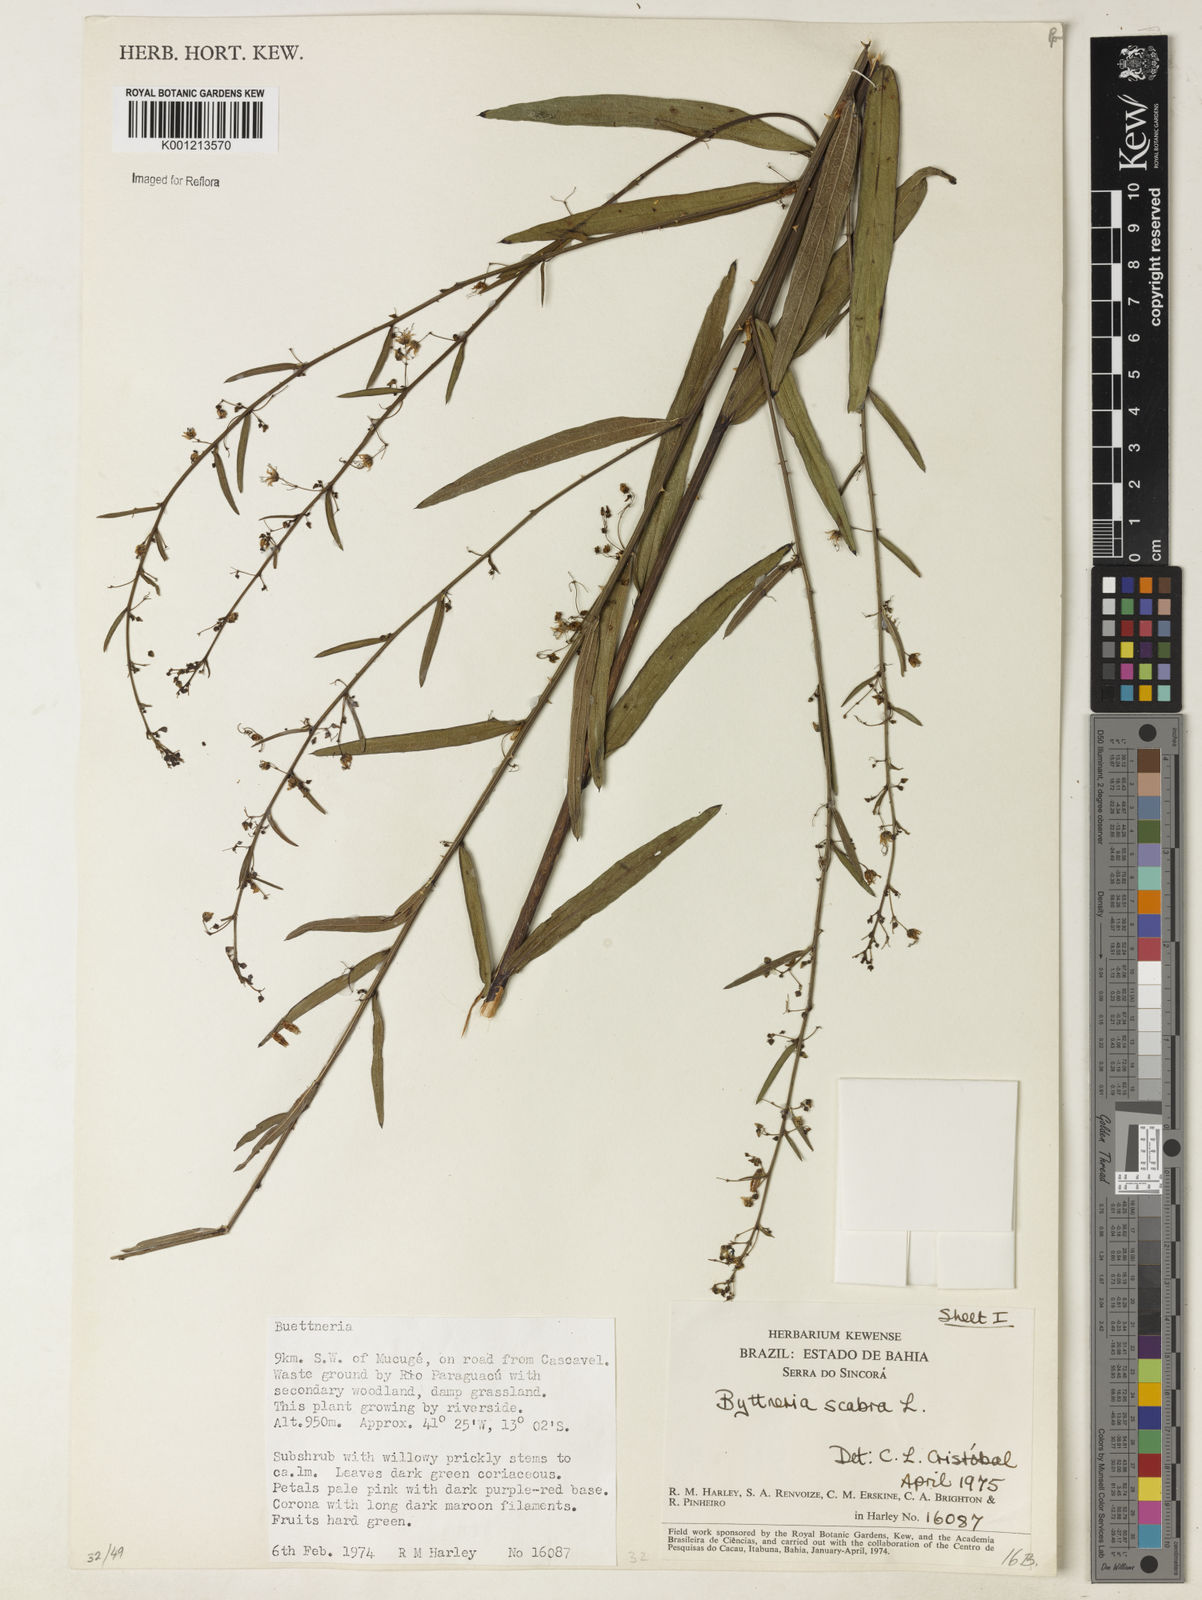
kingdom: Plantae
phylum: Tracheophyta
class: Magnoliopsida
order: Malvales
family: Malvaceae
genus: Byttneria
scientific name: Byttneria
